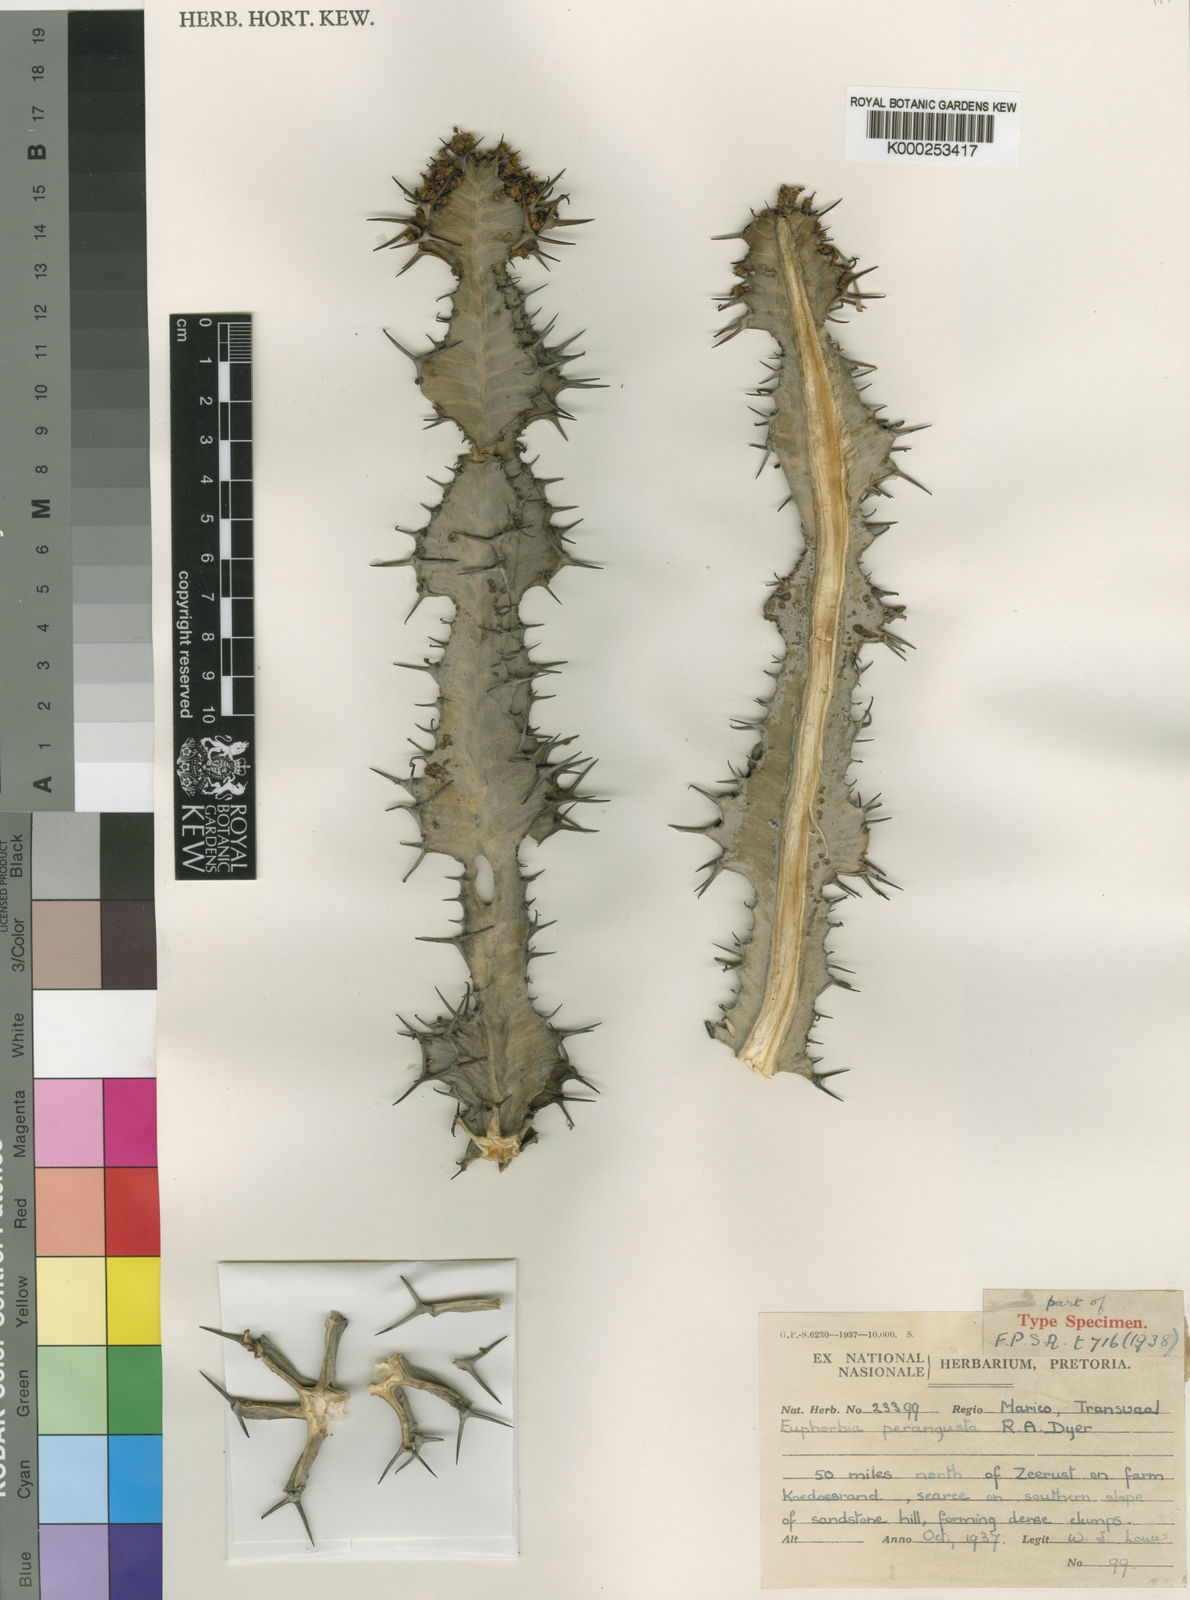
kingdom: Plantae
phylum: Tracheophyta
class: Magnoliopsida
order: Malpighiales
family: Euphorbiaceae
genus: Euphorbia
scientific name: Euphorbia perangusta
